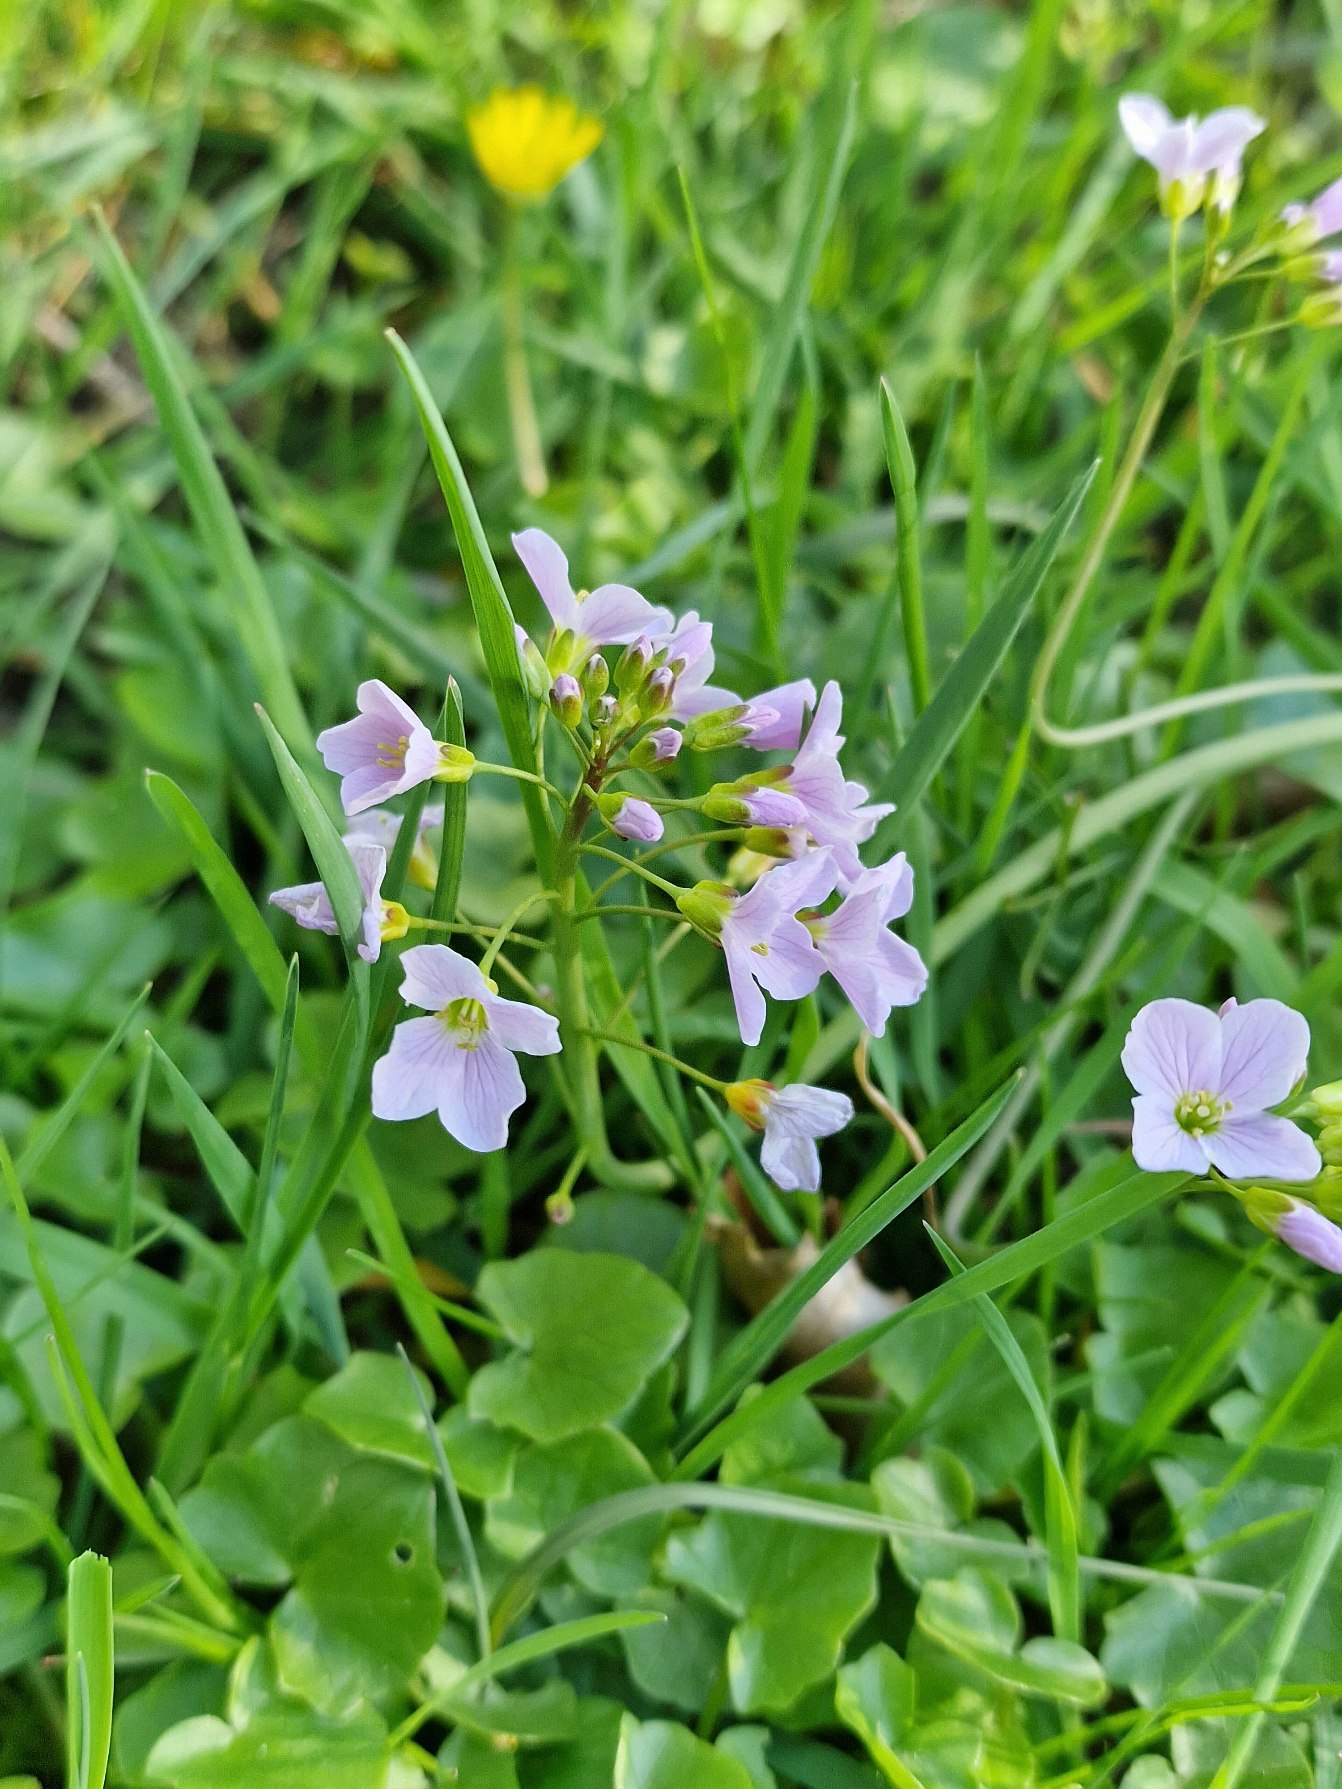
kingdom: Plantae
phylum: Tracheophyta
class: Magnoliopsida
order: Brassicales
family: Brassicaceae
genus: Cardamine
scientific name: Cardamine pratensis
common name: Engkarse
